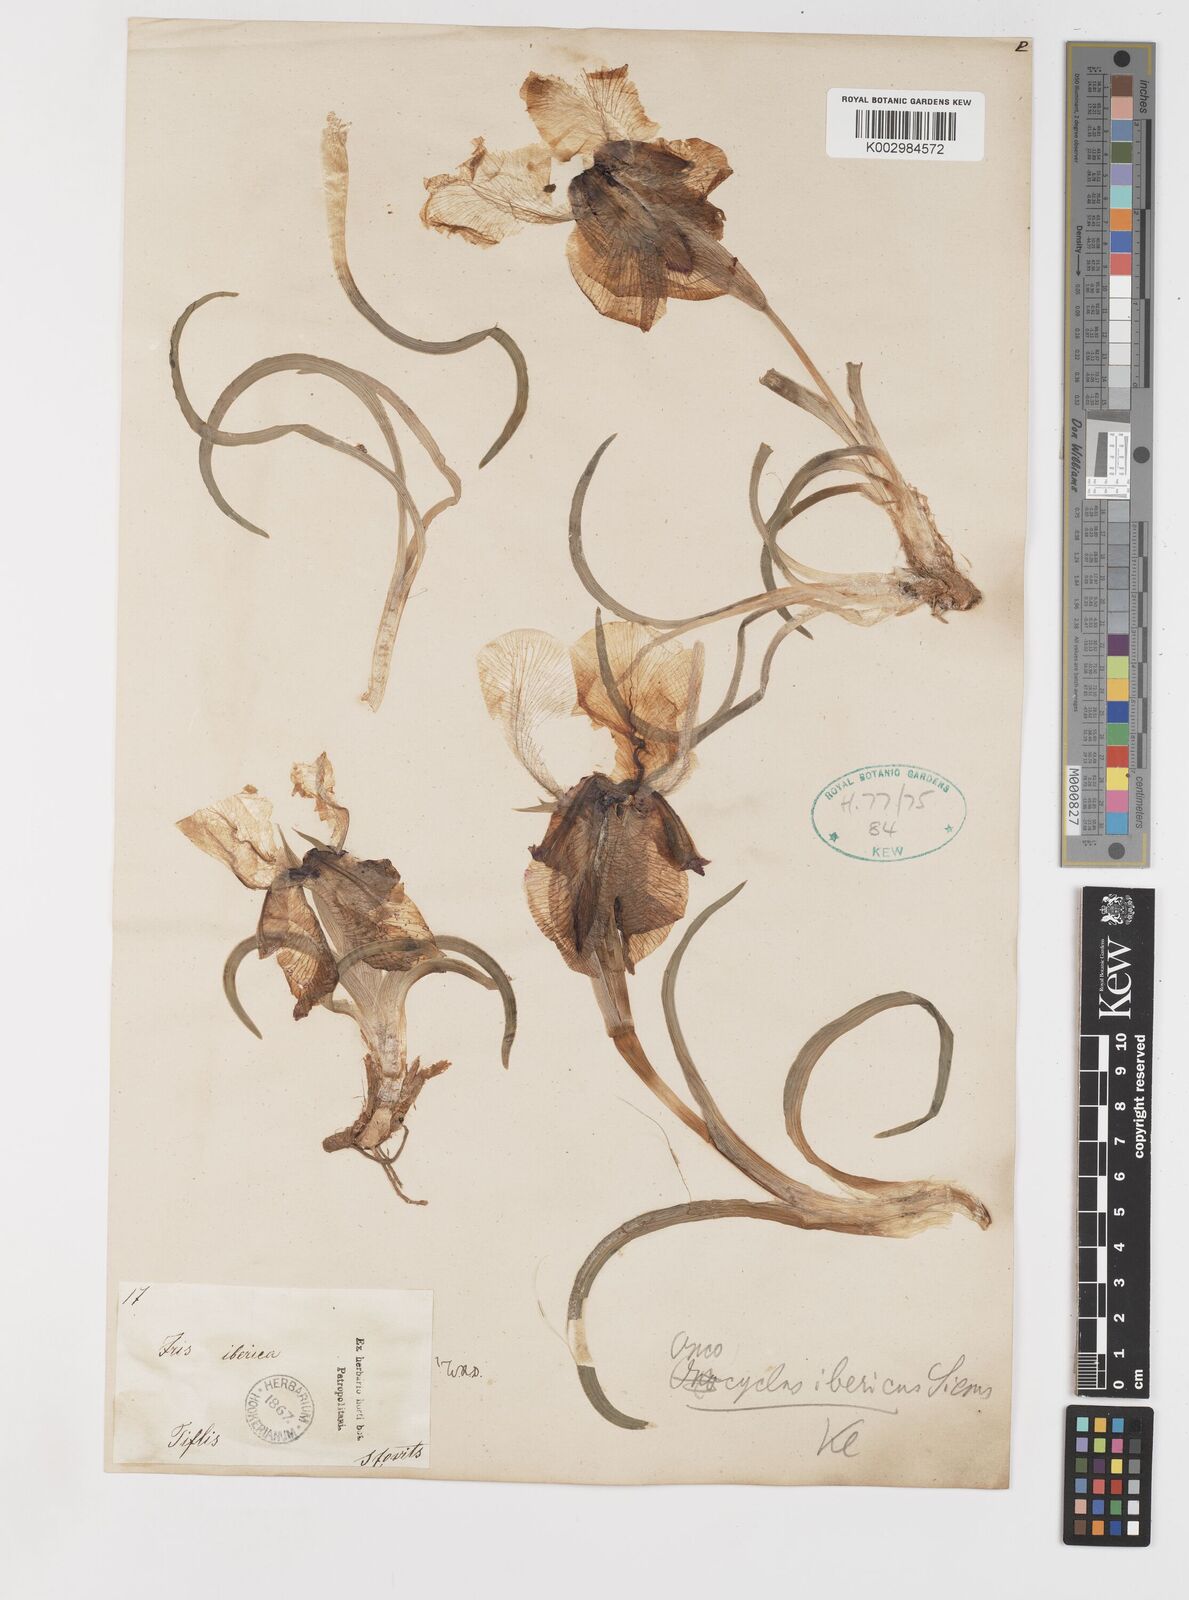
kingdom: Plantae
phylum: Tracheophyta
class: Liliopsida
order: Asparagales
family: Iridaceae
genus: Iris
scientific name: Iris iberica
